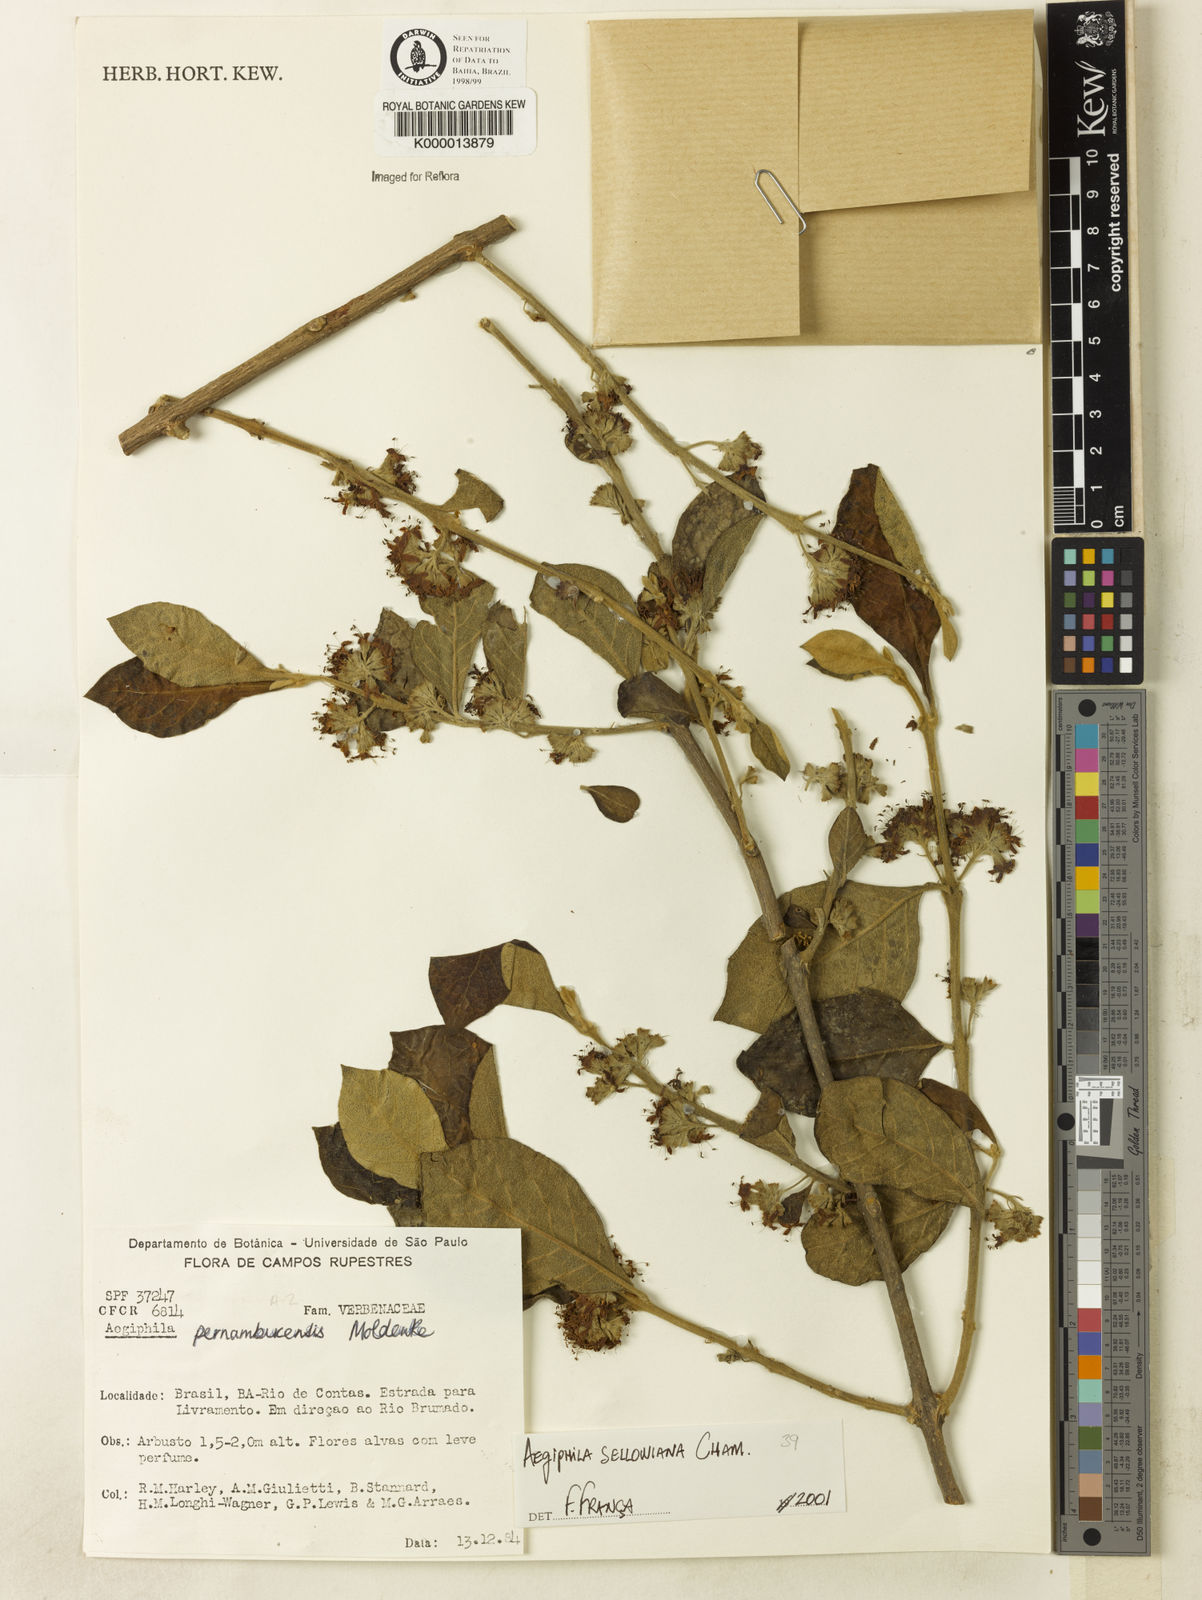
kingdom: Plantae
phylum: Tracheophyta
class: Magnoliopsida
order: Lamiales
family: Lamiaceae
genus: Aegiphila
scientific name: Aegiphila pernambucensis
